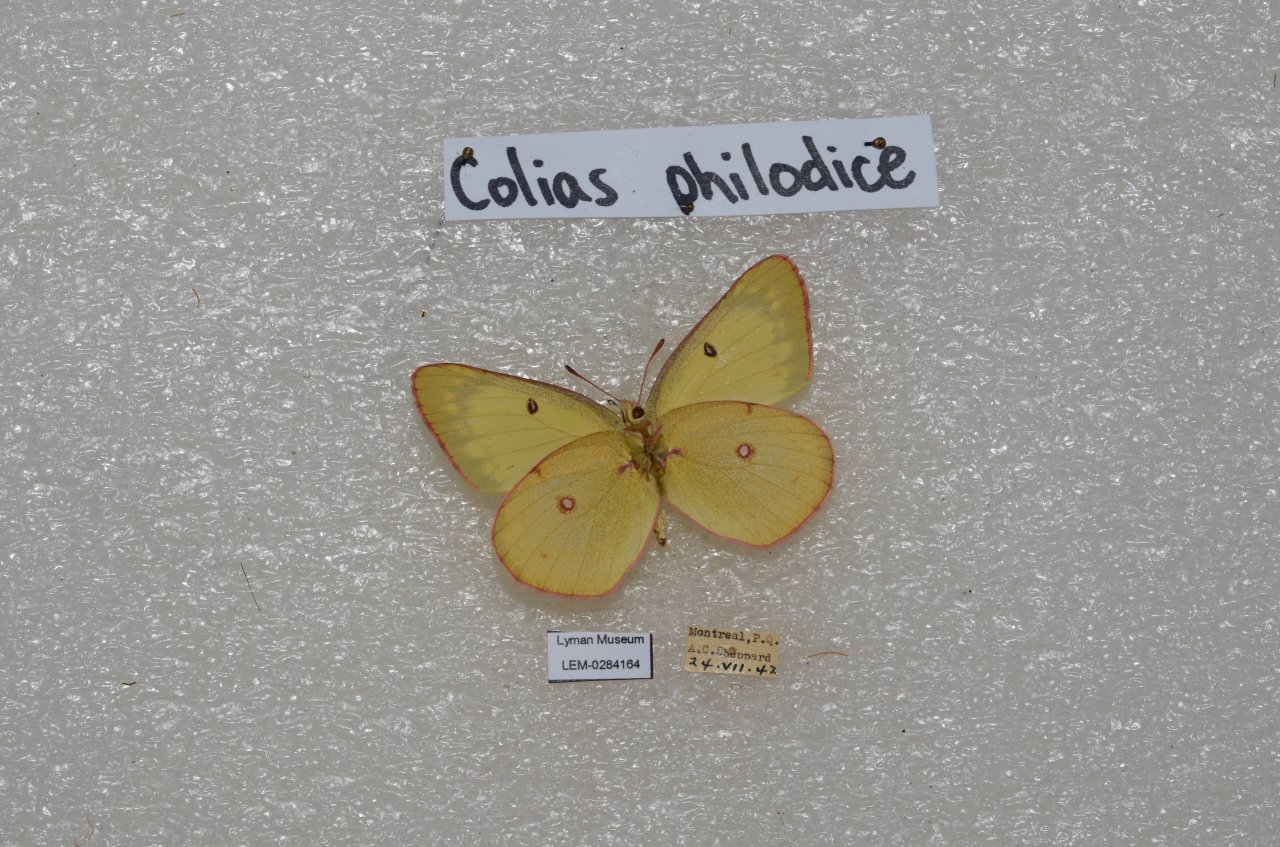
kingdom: Animalia
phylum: Arthropoda
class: Insecta
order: Lepidoptera
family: Pieridae
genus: Colias
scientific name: Colias philodice
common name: Clouded Sulphur
